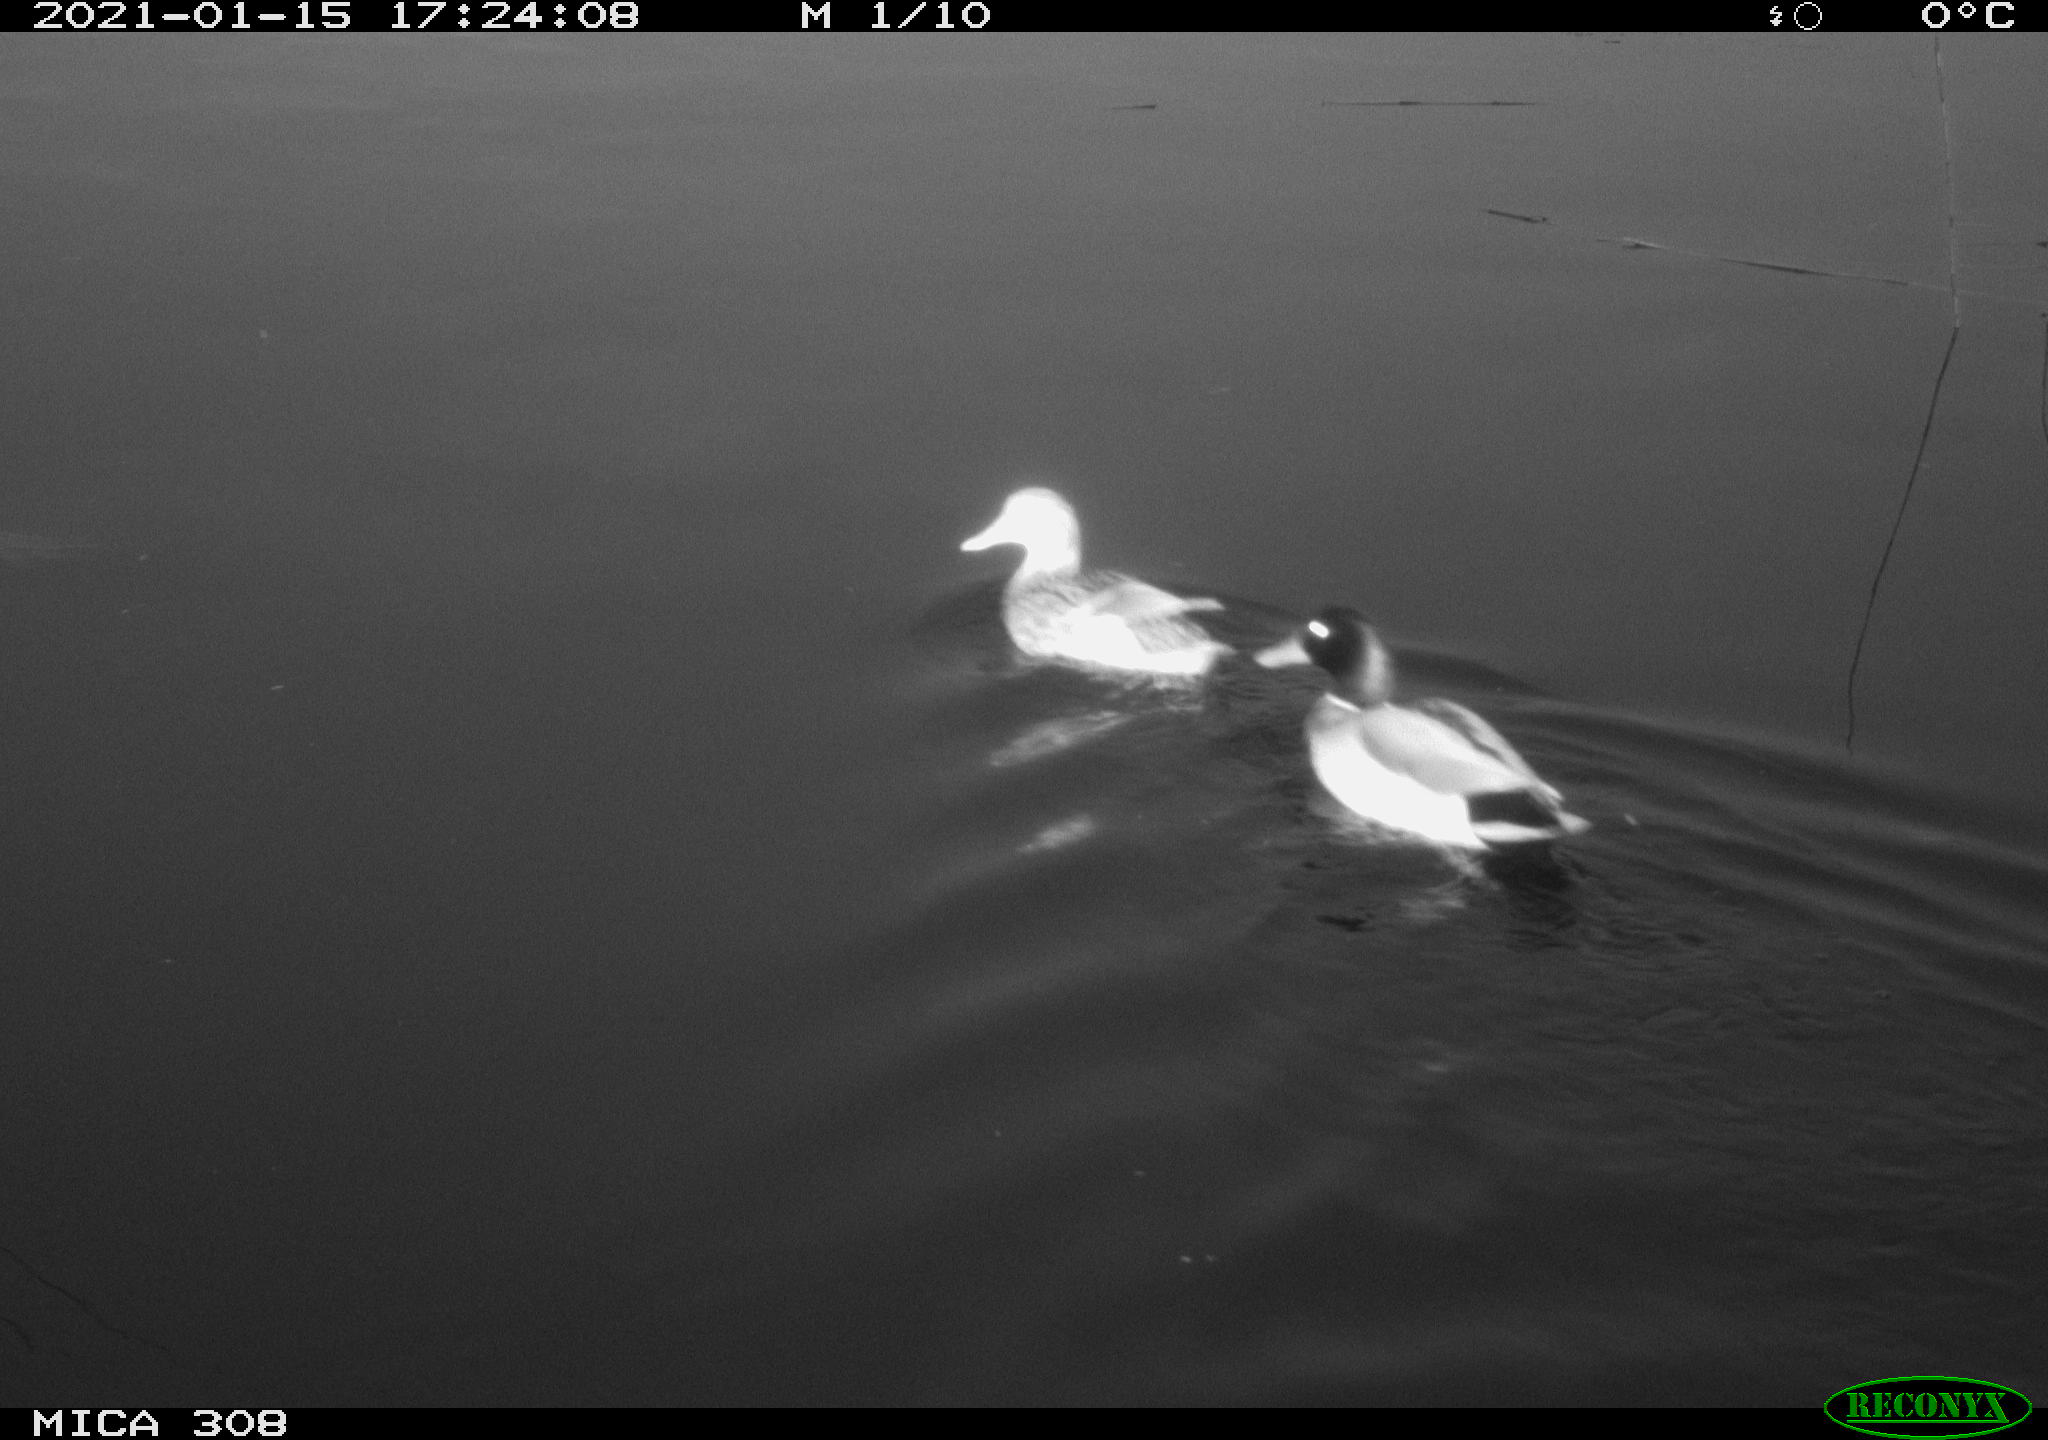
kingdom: Animalia
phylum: Chordata
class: Aves
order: Anseriformes
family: Anatidae
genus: Anas
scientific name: Anas platyrhynchos
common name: Mallard
